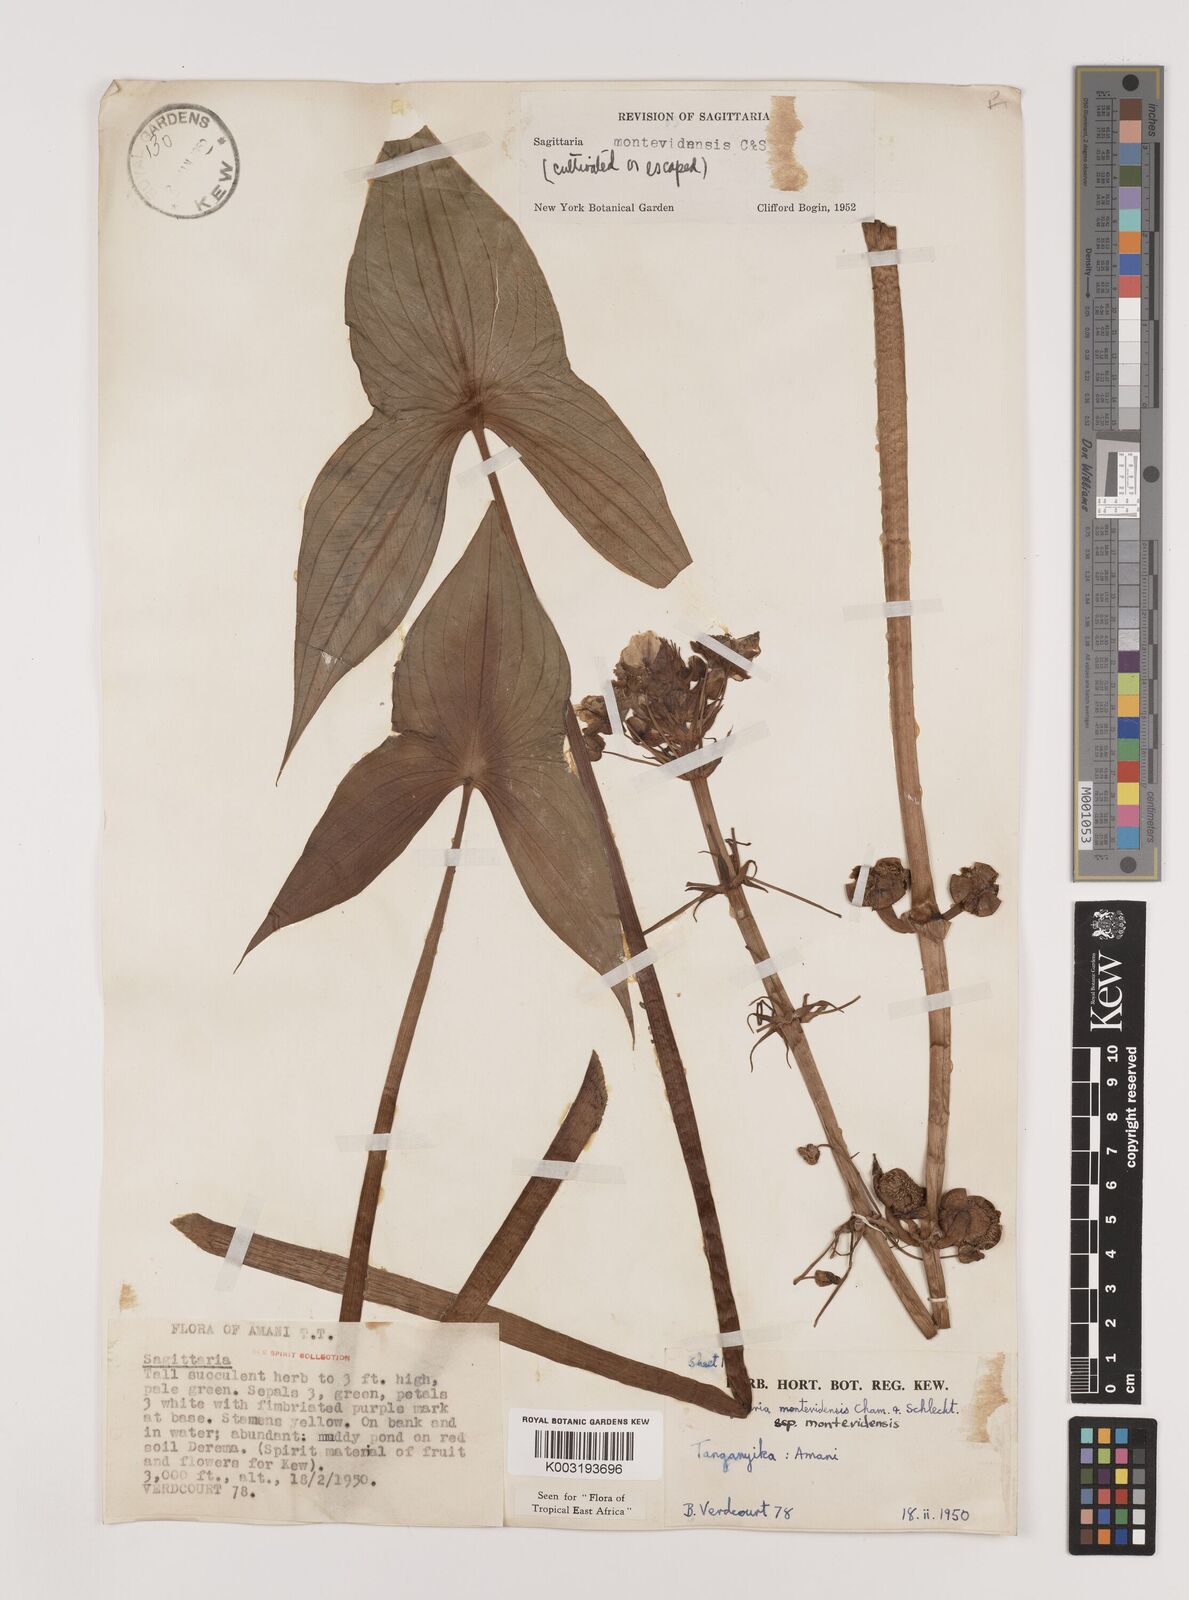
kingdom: Plantae
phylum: Tracheophyta
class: Liliopsida
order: Alismatales
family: Alismataceae
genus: Sagittaria
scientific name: Sagittaria montevidensis
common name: Giant arrowhead
